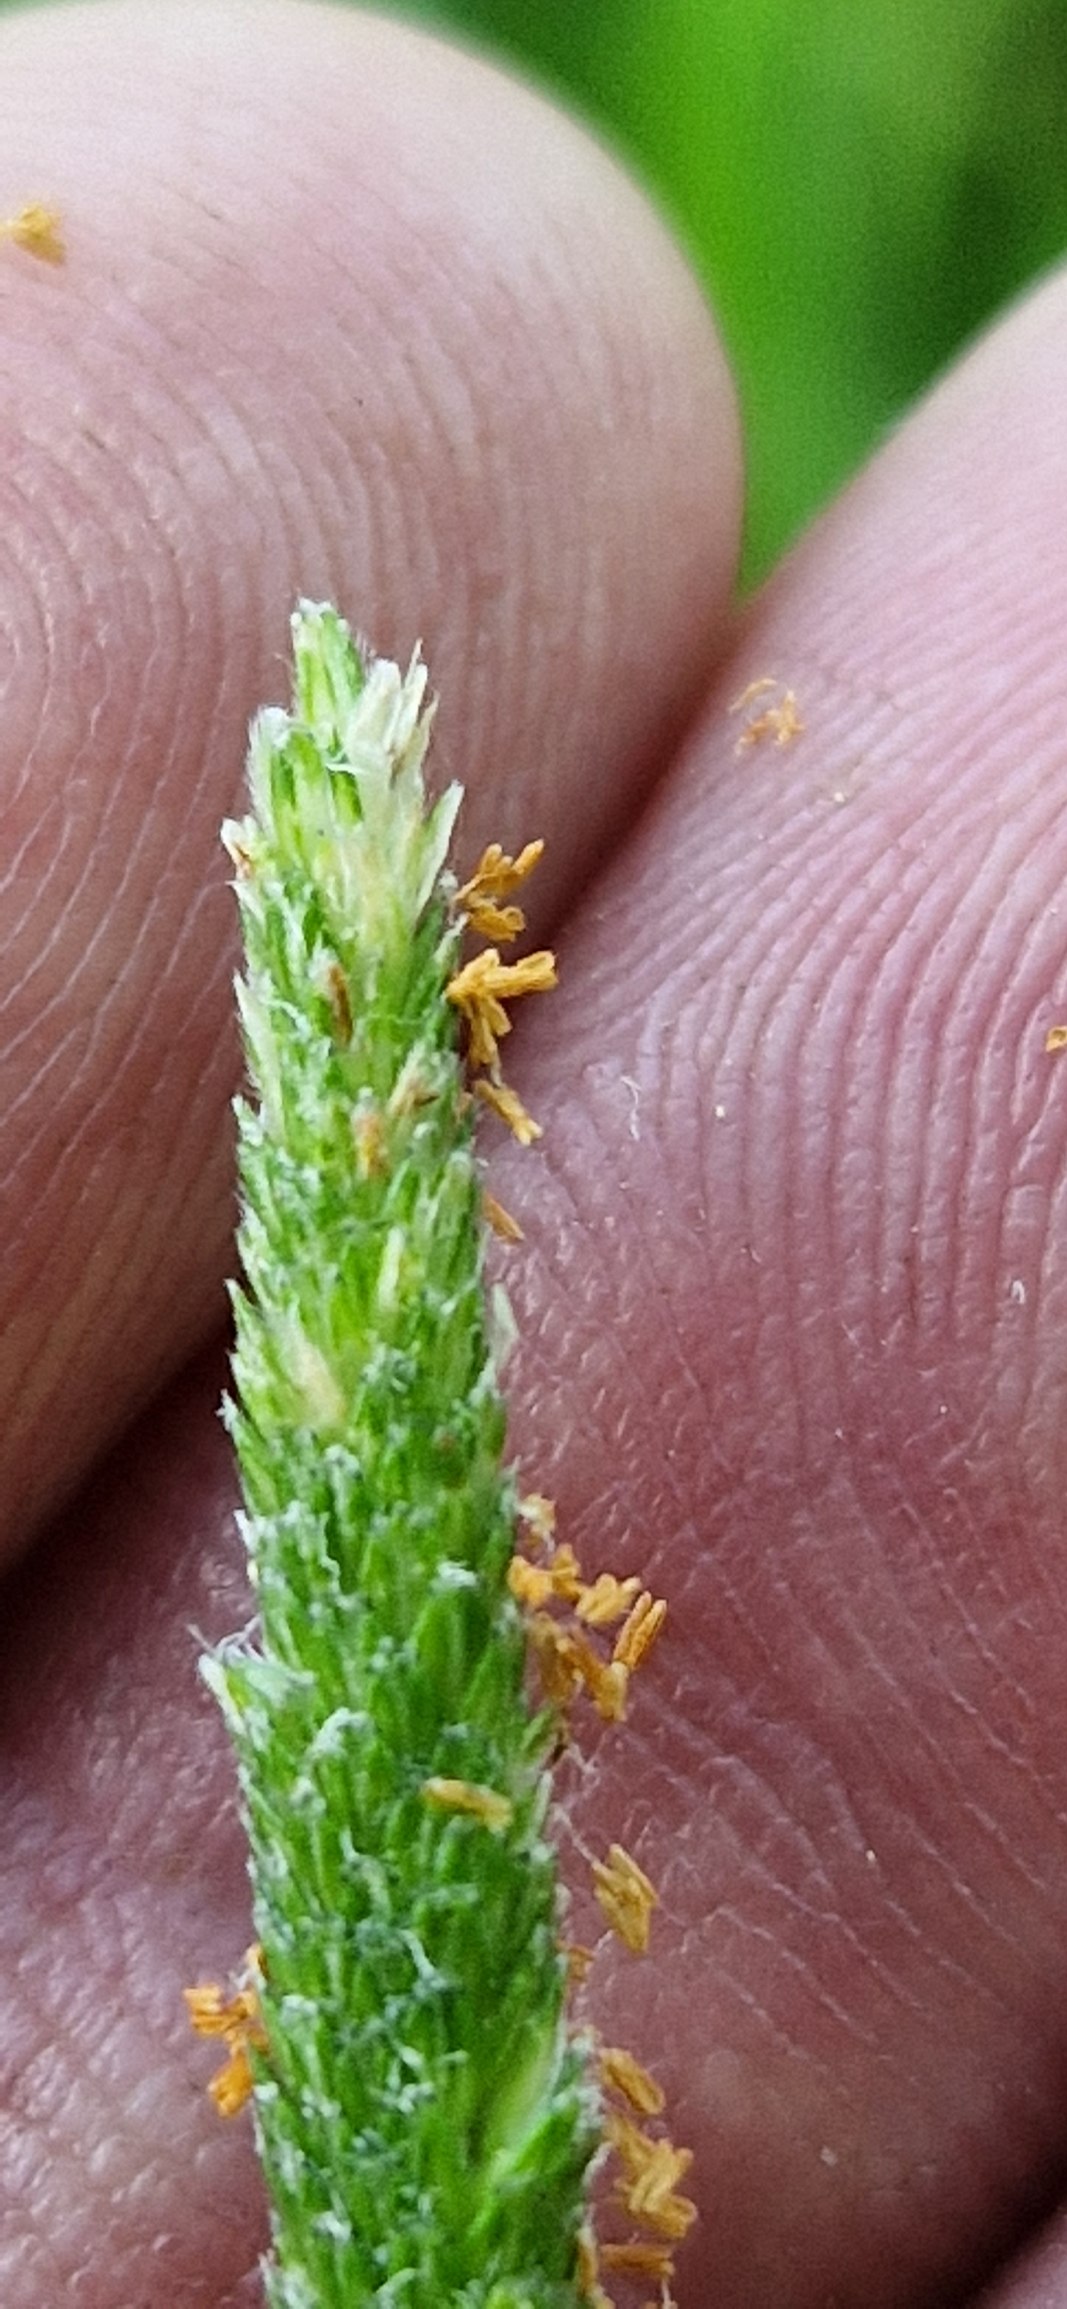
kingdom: Plantae
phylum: Tracheophyta
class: Liliopsida
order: Poales
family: Poaceae
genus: Alopecurus
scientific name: Alopecurus aequalis
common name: Gul rævehale
